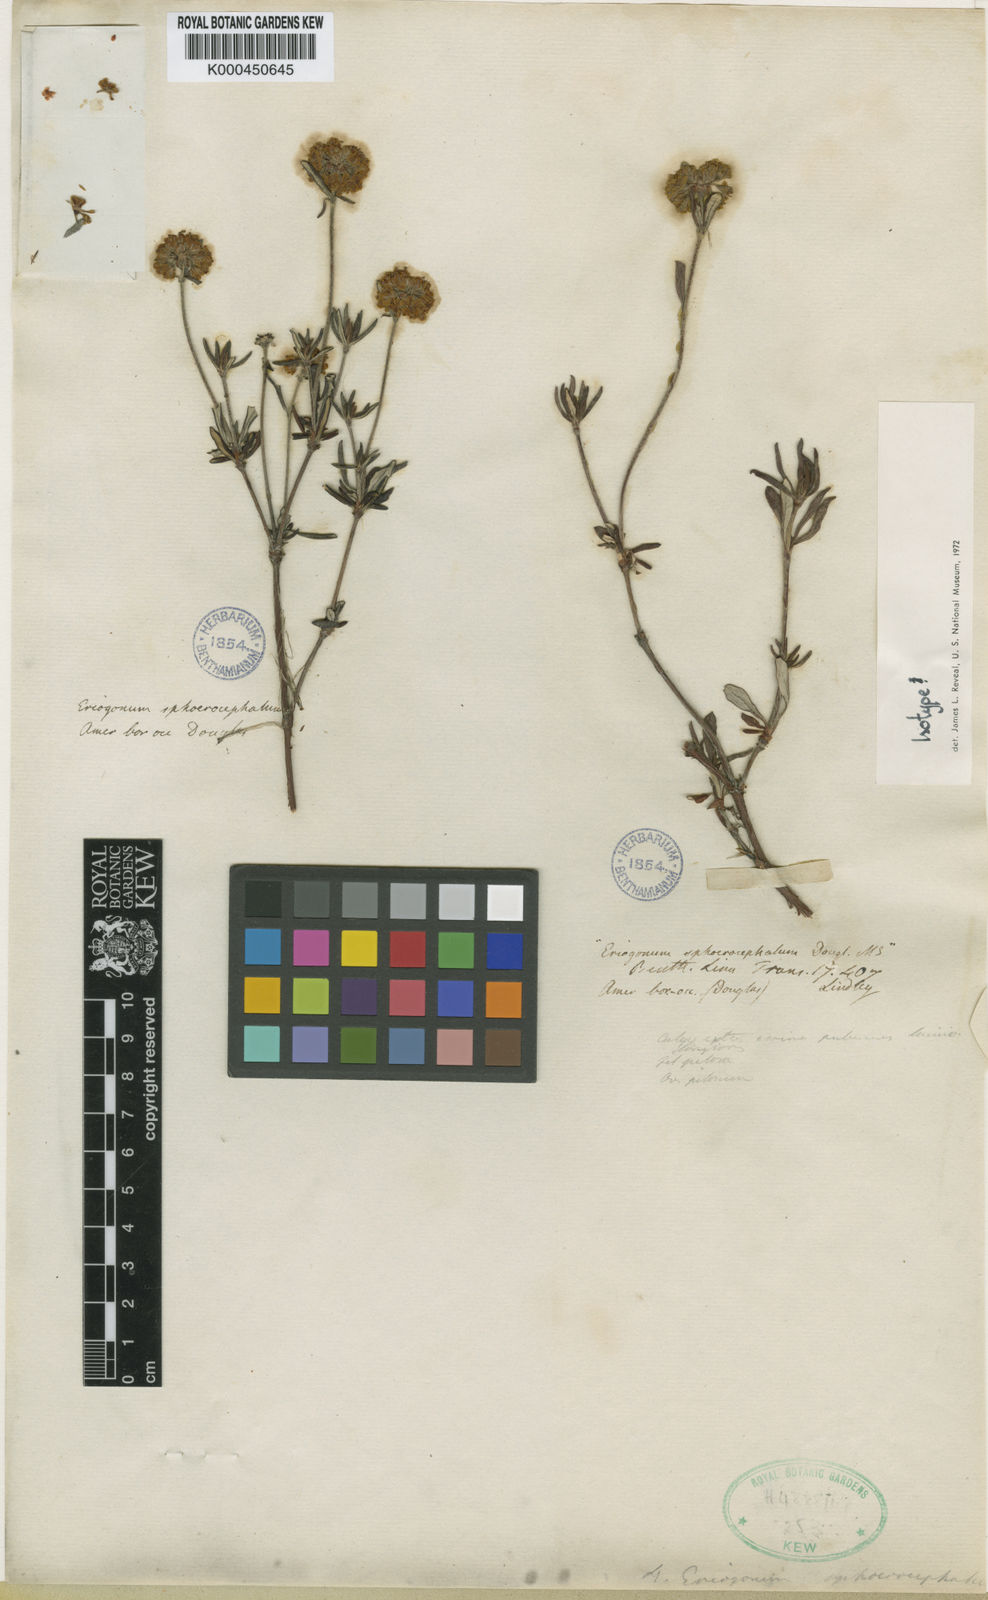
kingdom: Plantae
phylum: Tracheophyta
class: Magnoliopsida
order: Caryophyllales
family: Polygonaceae
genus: Eriogonum
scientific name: Eriogonum sphaerocephalum
